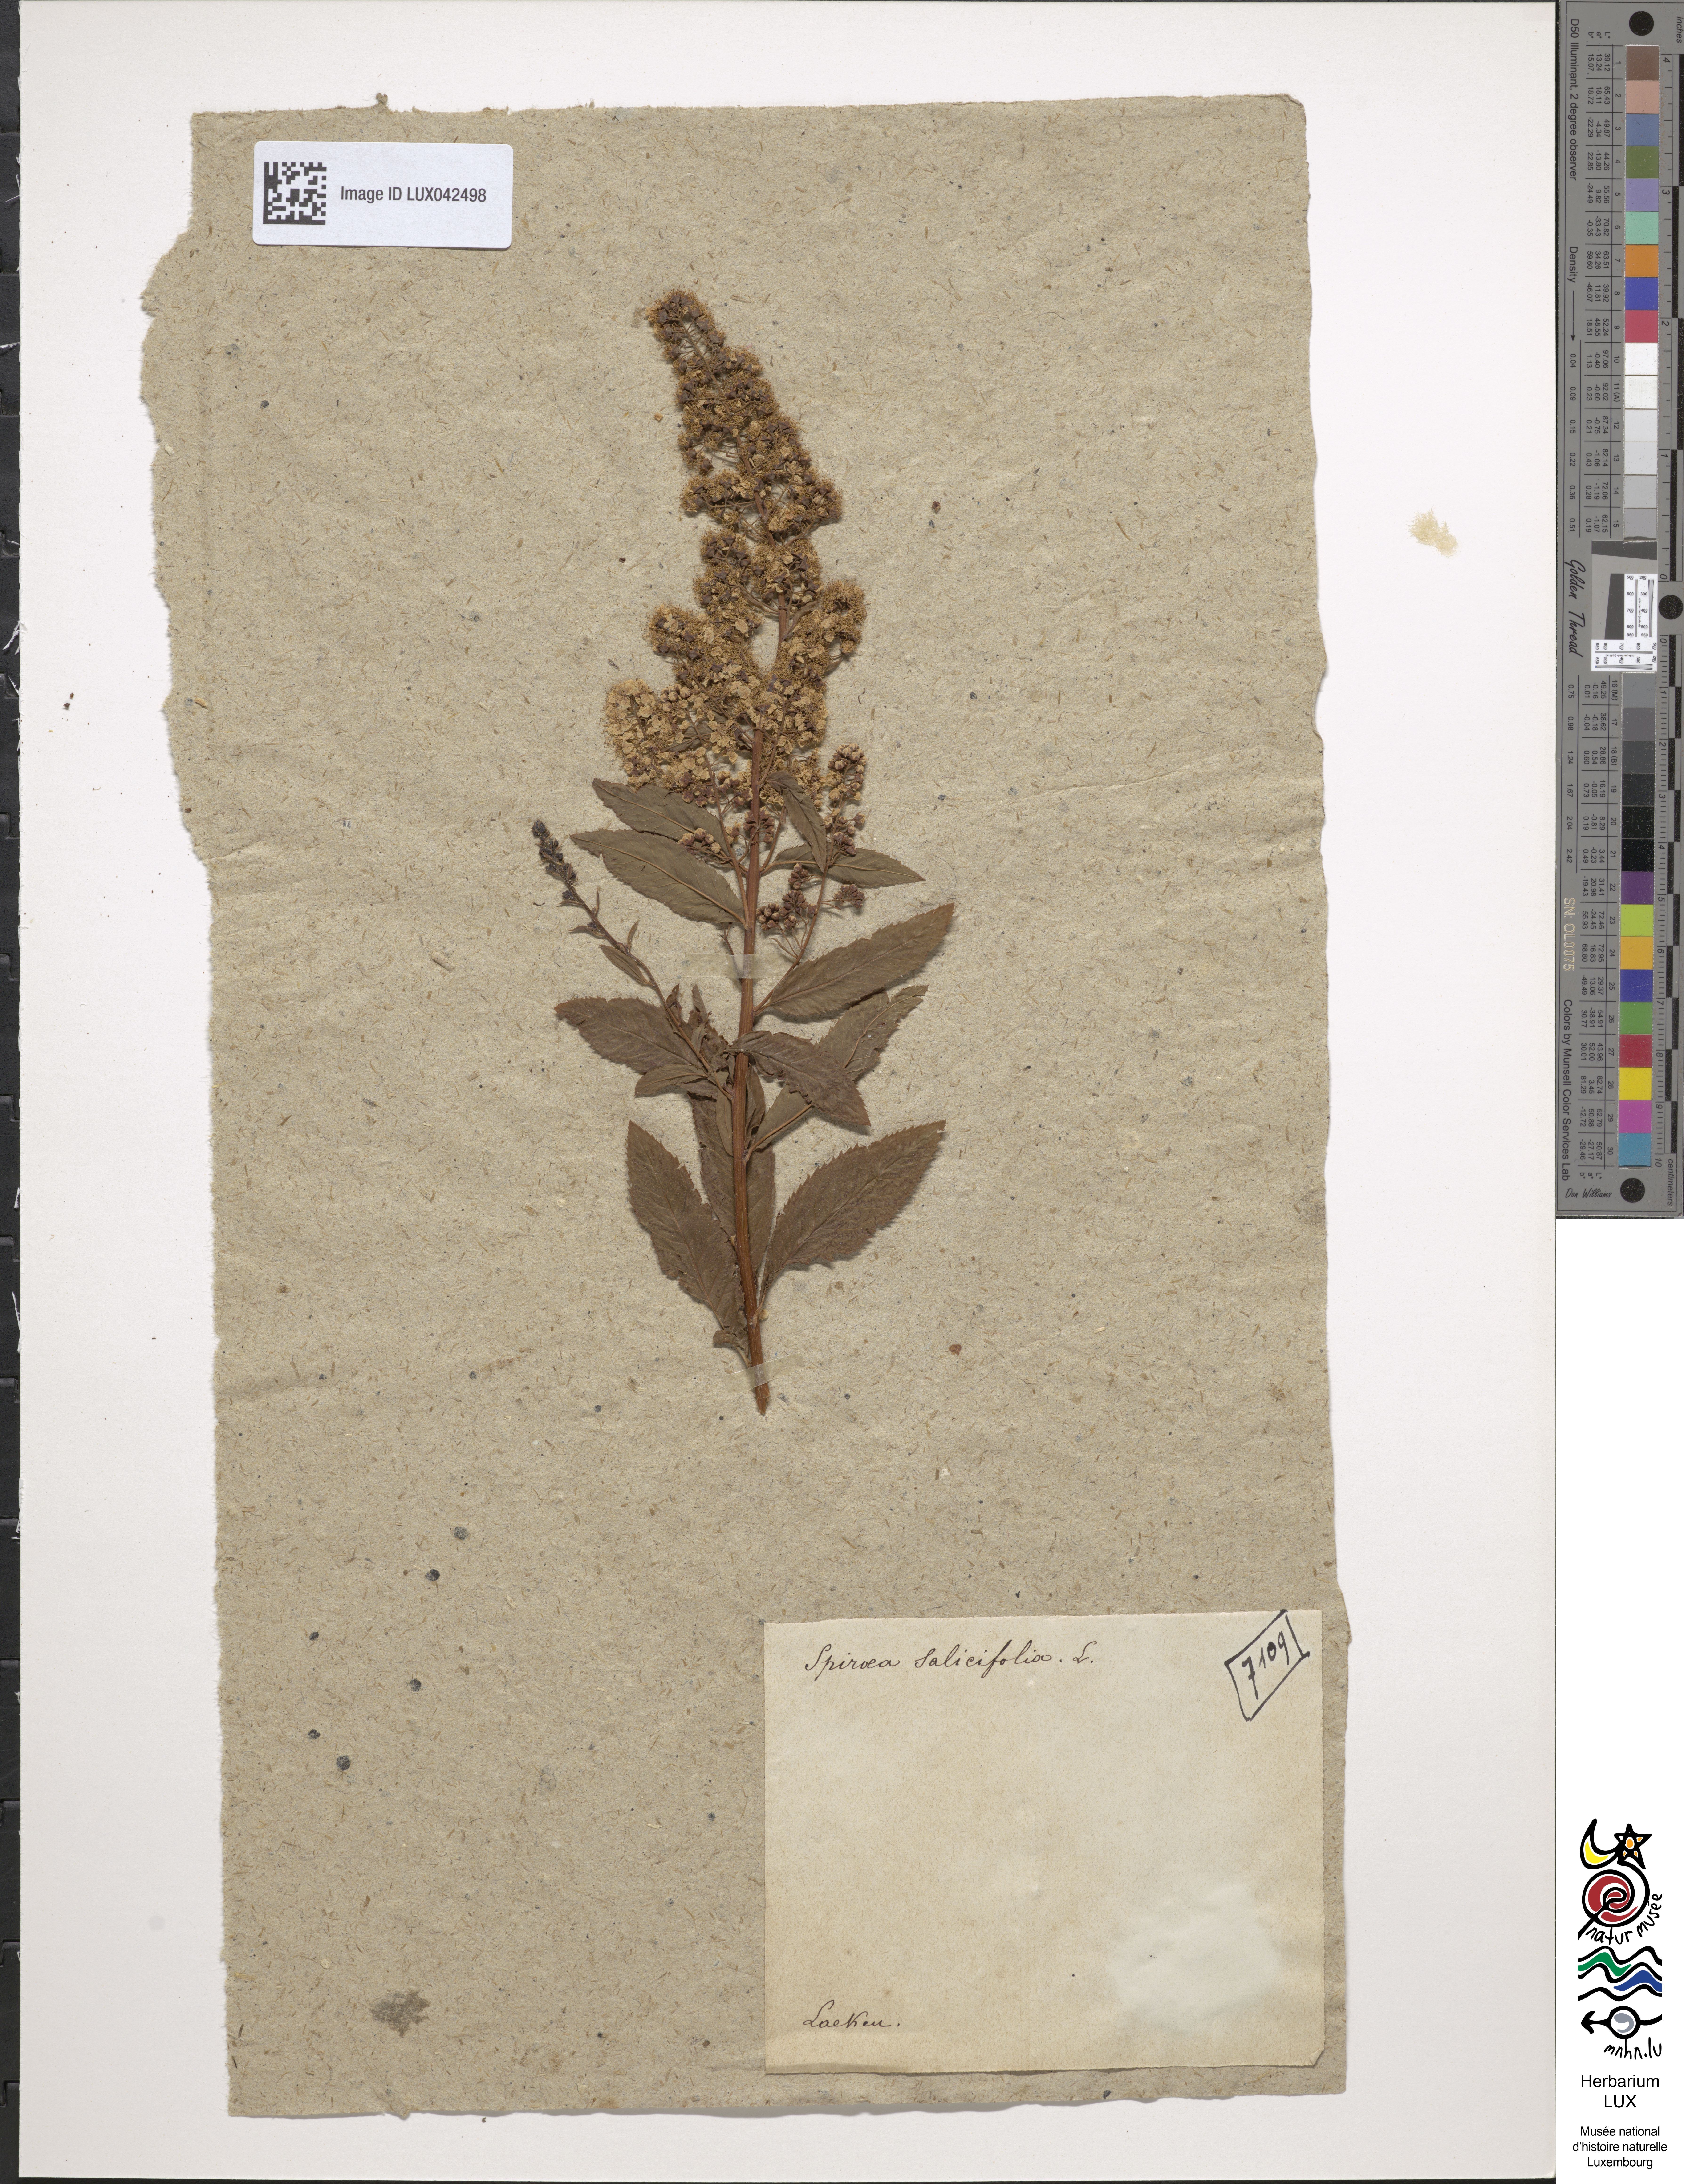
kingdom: Plantae
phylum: Tracheophyta
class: Magnoliopsida
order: Rosales
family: Rosaceae
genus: Spiraea
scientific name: Spiraea salicifolia
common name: Bridewort
